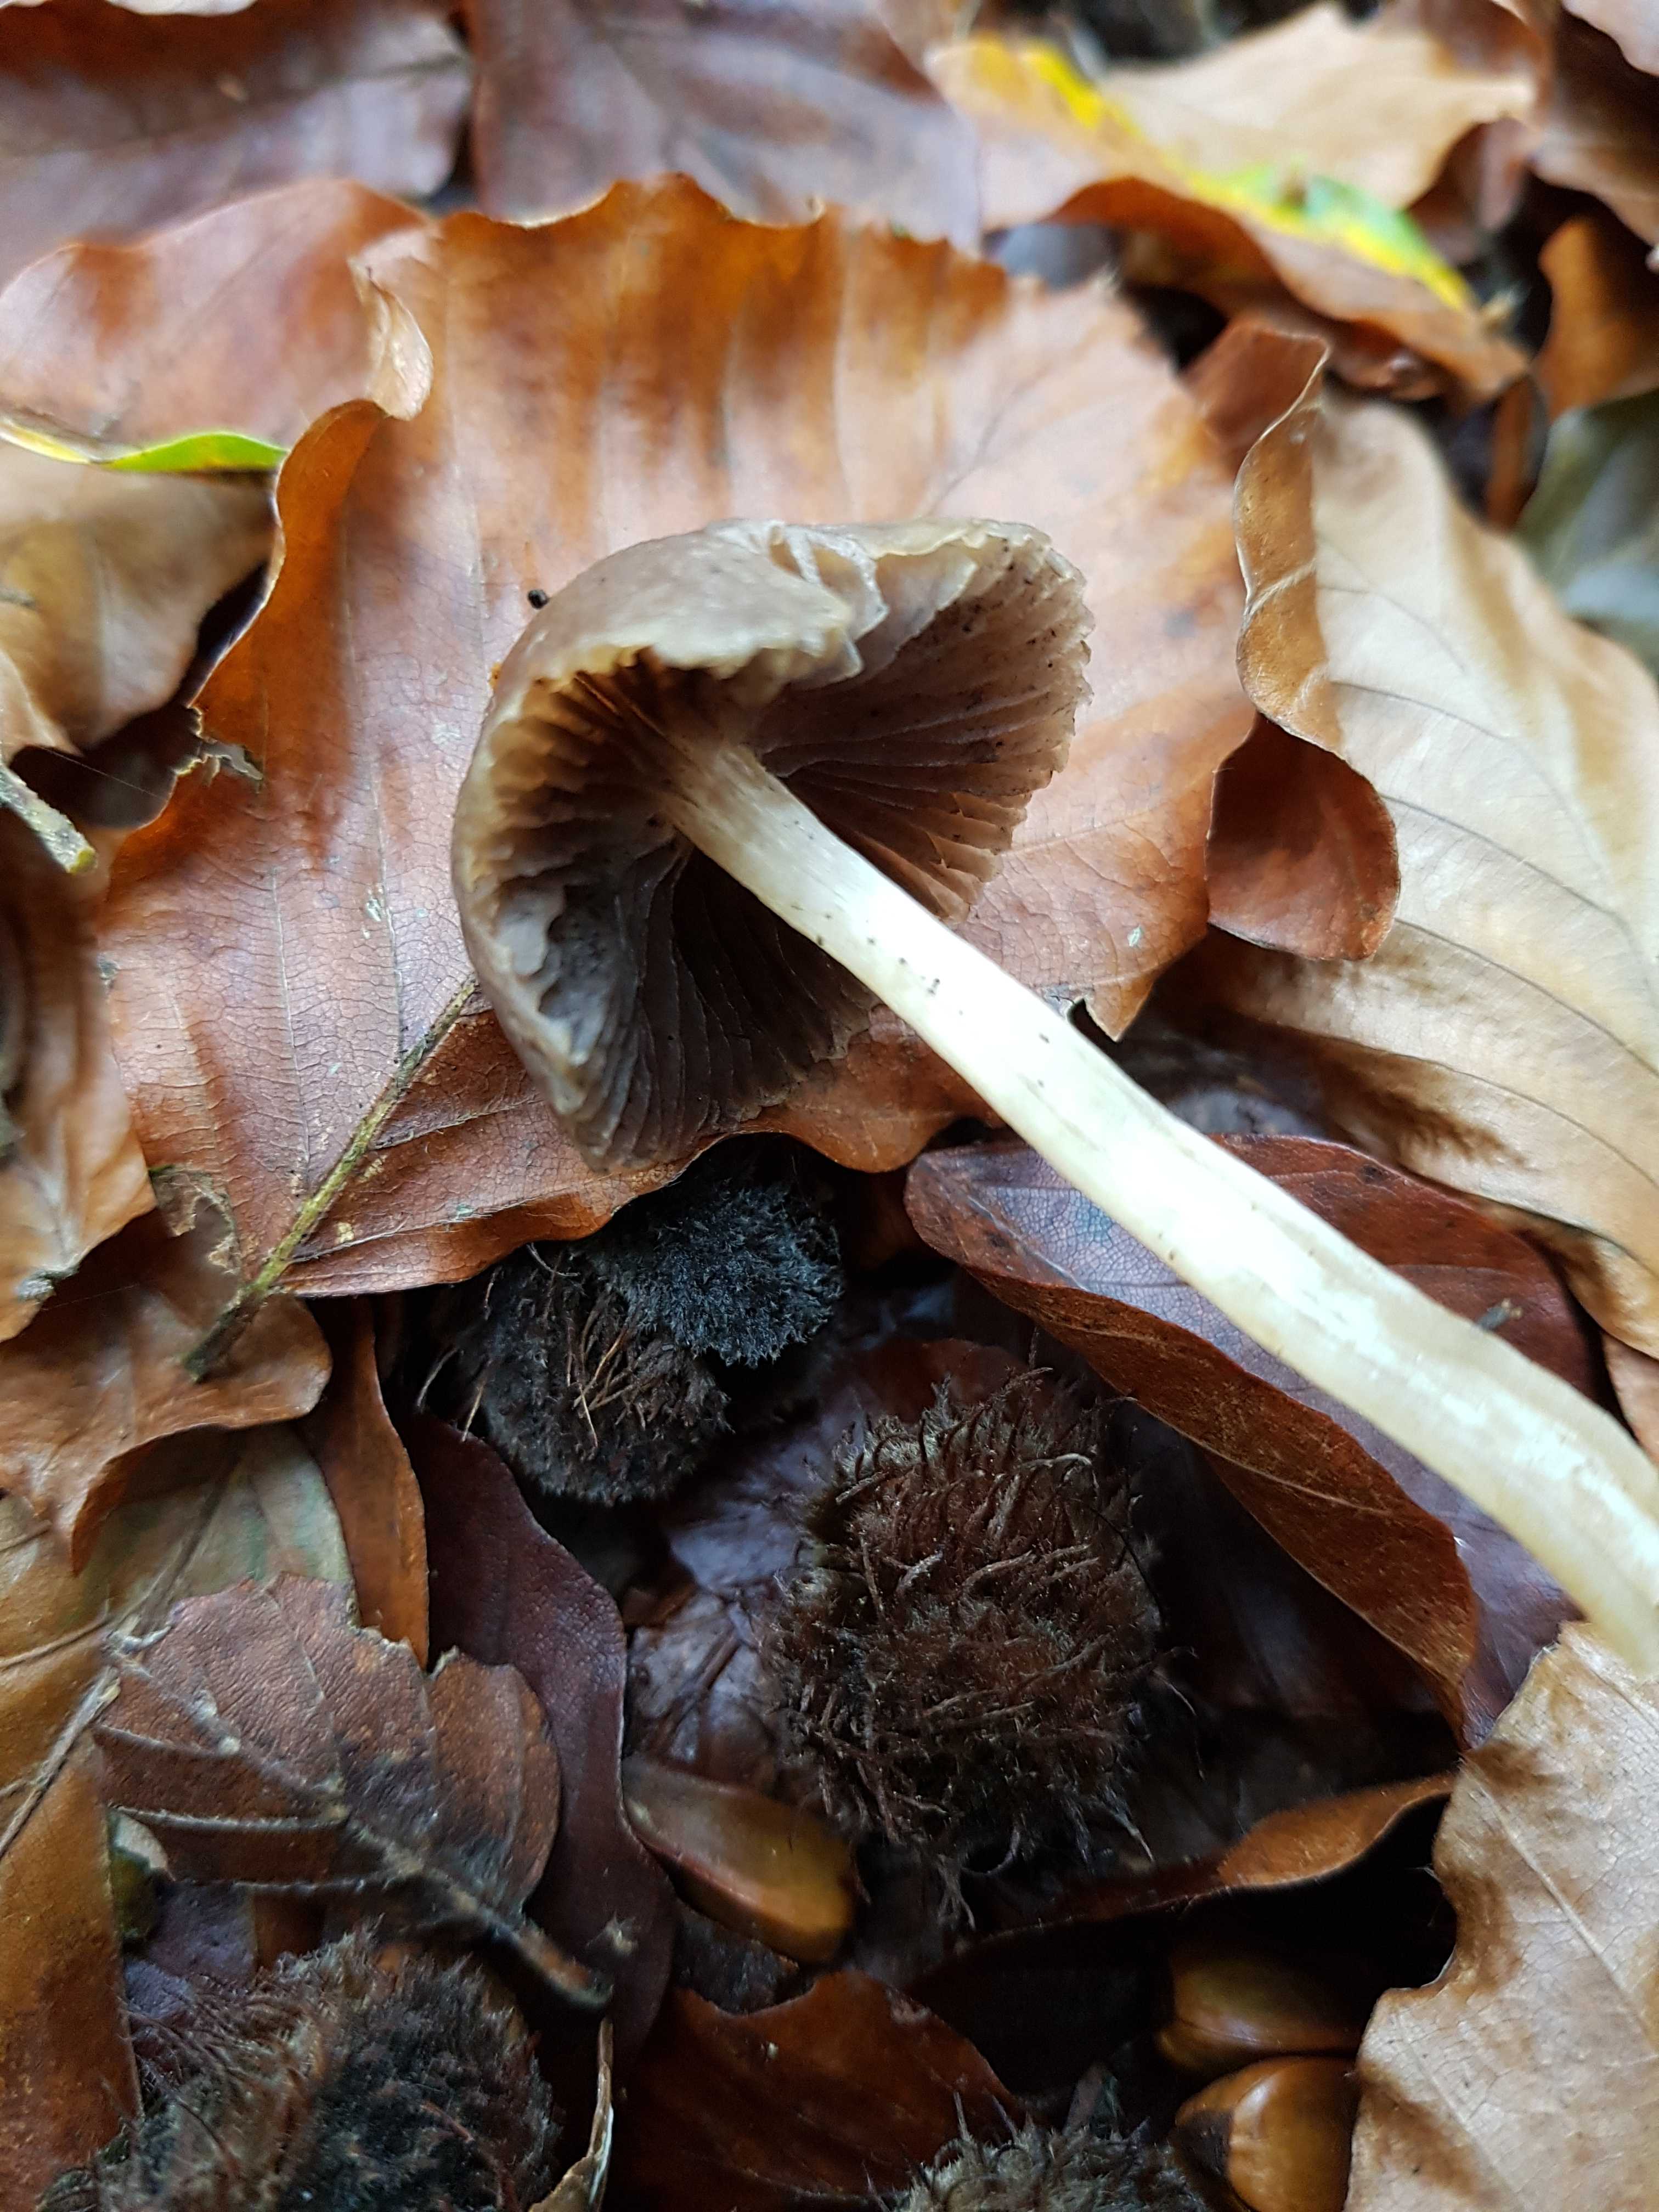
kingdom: Fungi
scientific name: Fungi
